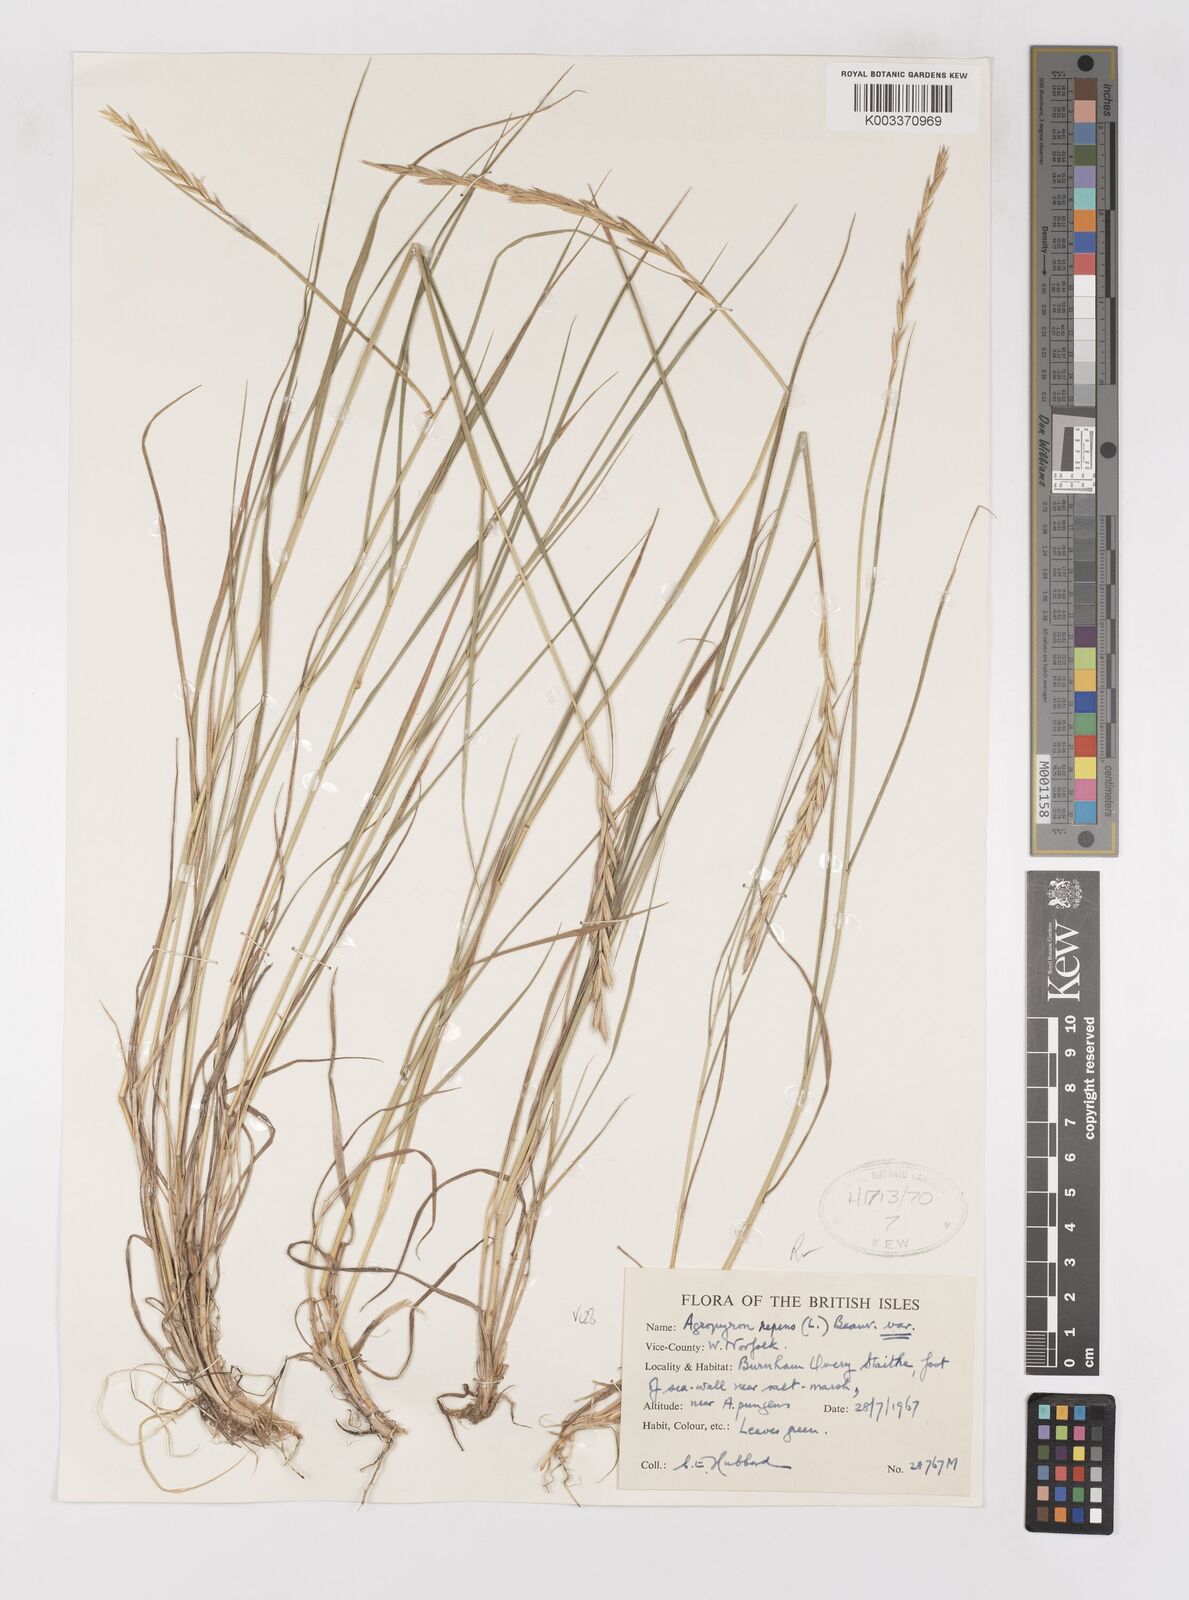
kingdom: Plantae
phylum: Tracheophyta
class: Liliopsida
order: Poales
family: Poaceae
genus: Elymus
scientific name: Elymus repens
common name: Quackgrass
